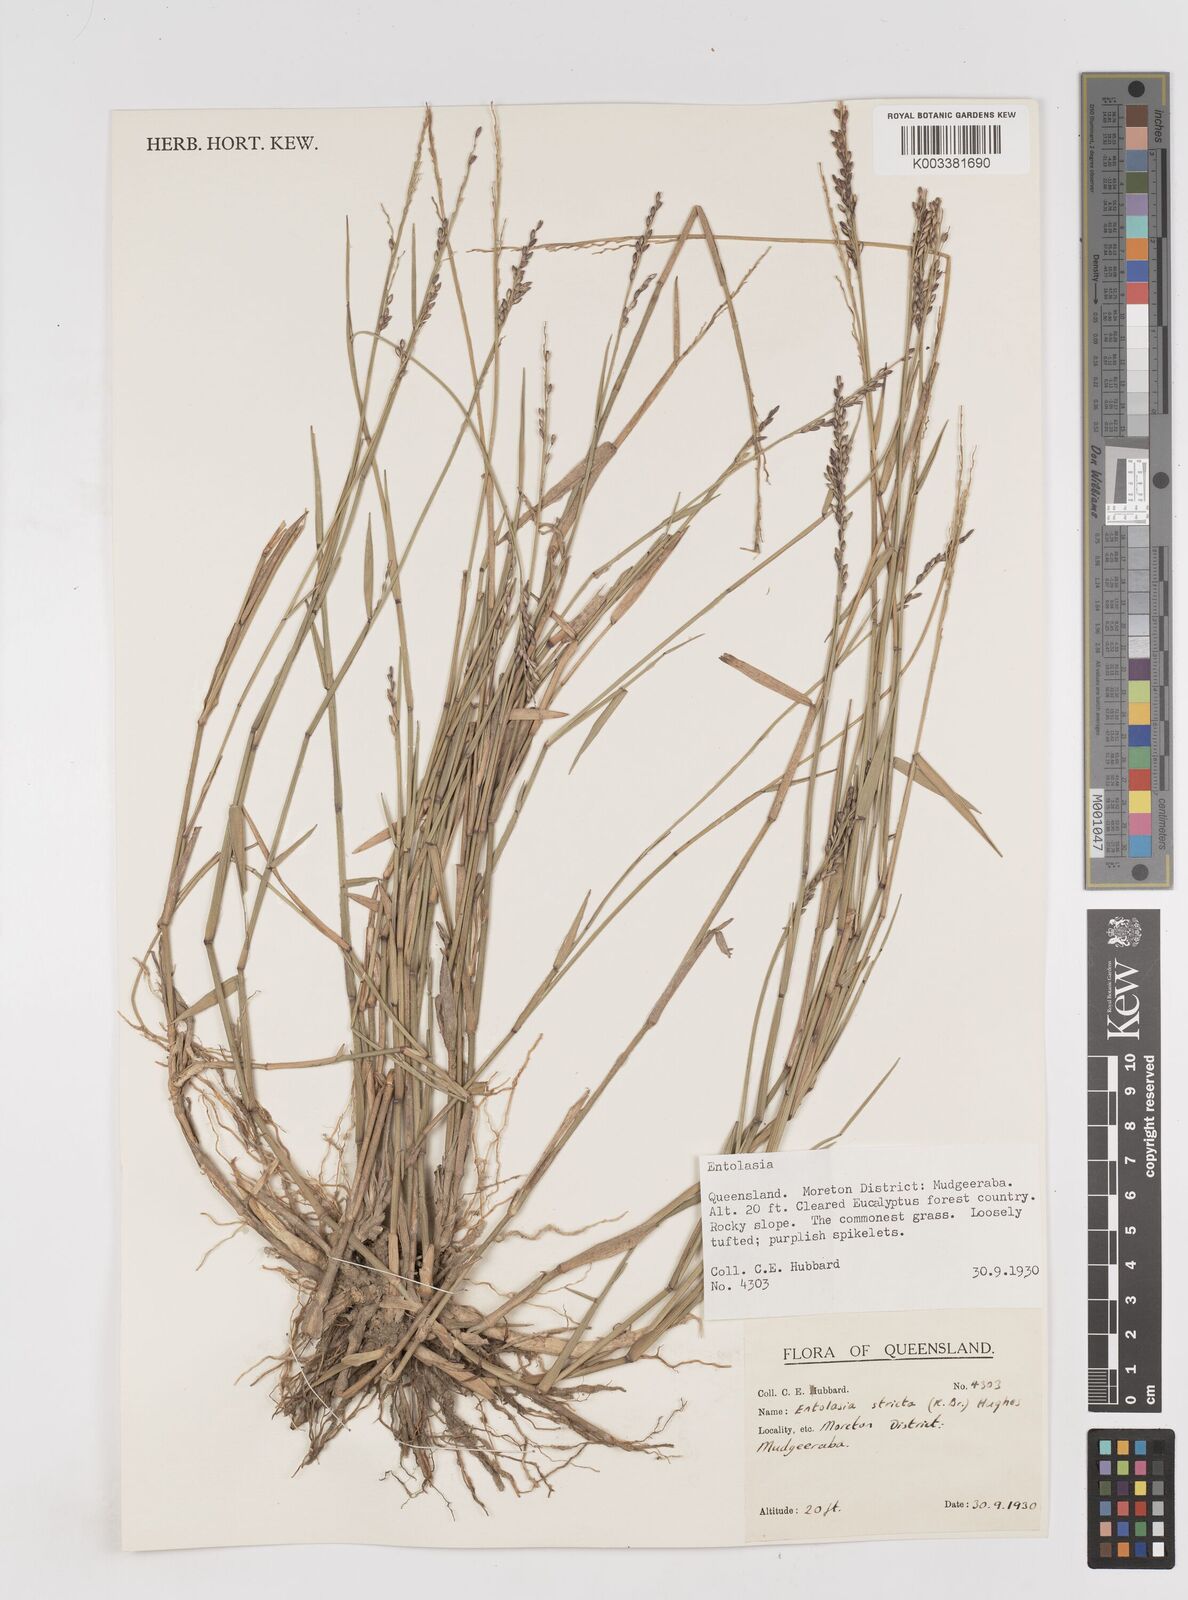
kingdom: Plantae
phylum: Tracheophyta
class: Liliopsida
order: Poales
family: Poaceae
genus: Entolasia
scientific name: Entolasia stricta
